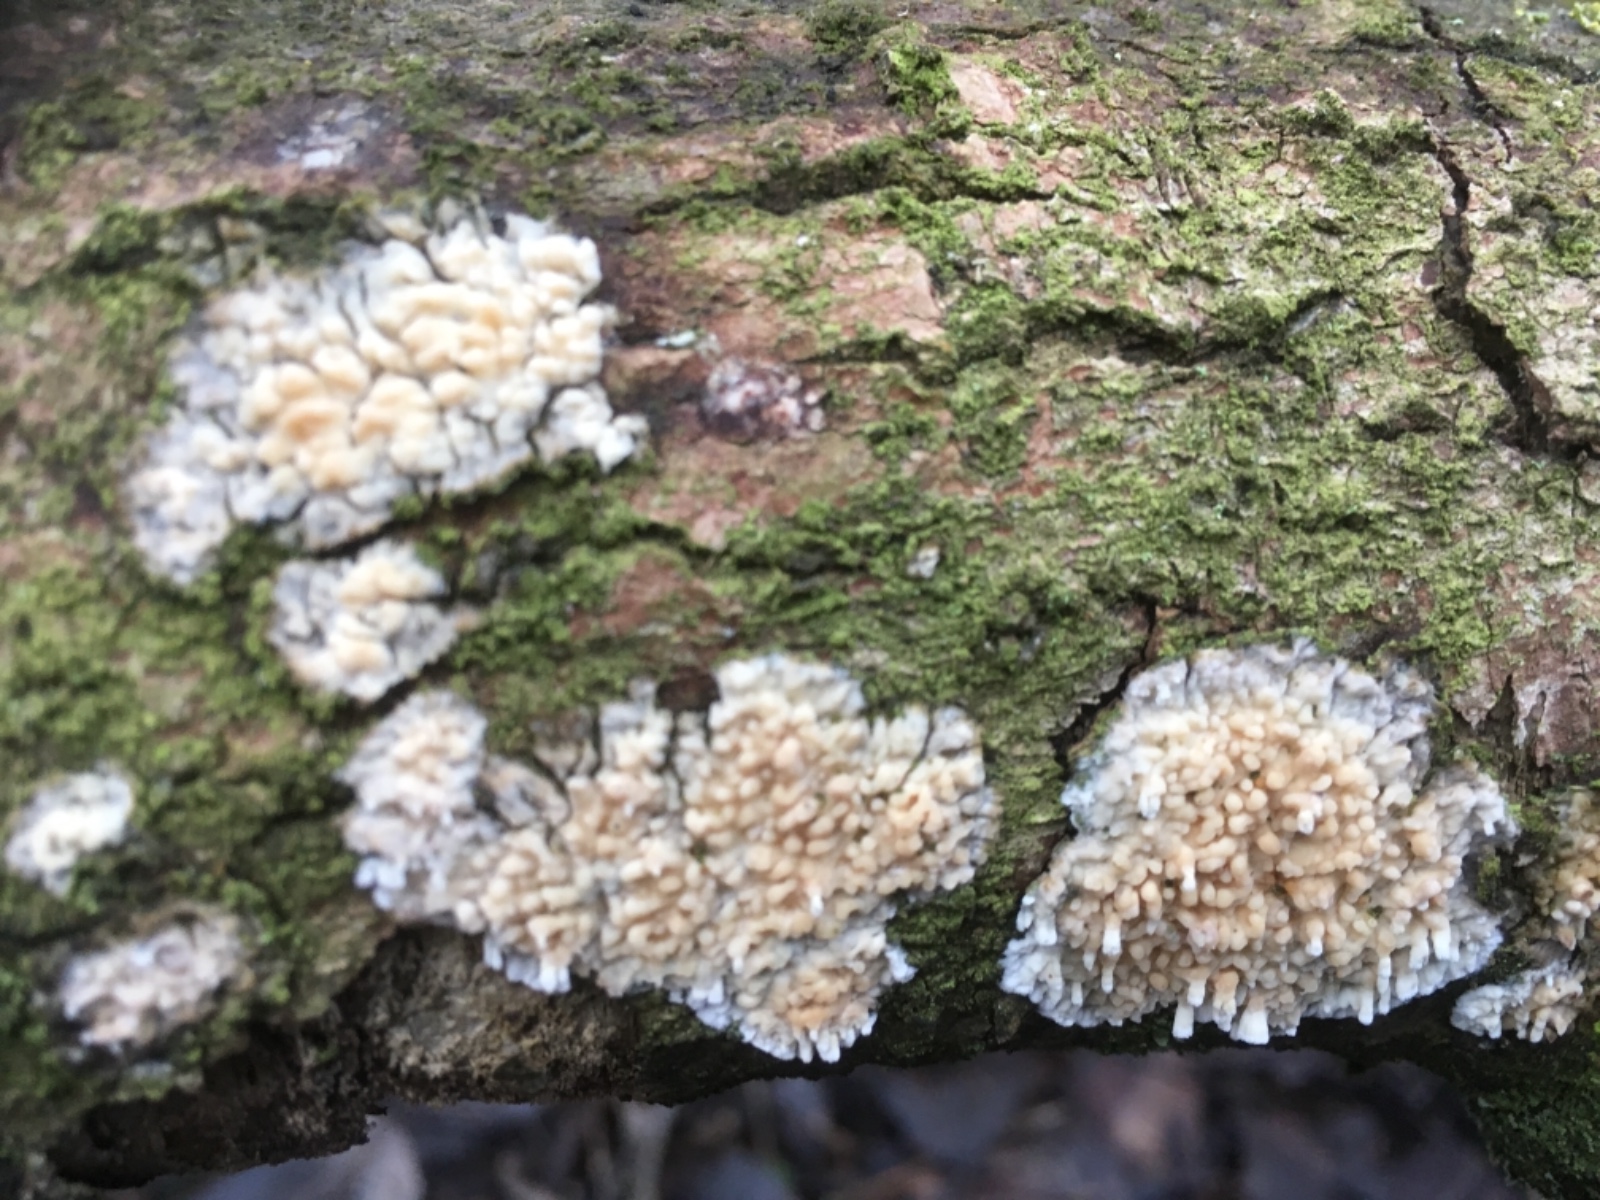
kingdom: Fungi
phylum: Basidiomycota
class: Agaricomycetes
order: Hymenochaetales
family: Schizoporaceae
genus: Xylodon
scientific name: Xylodon radula
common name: grovtandet kalkskind
